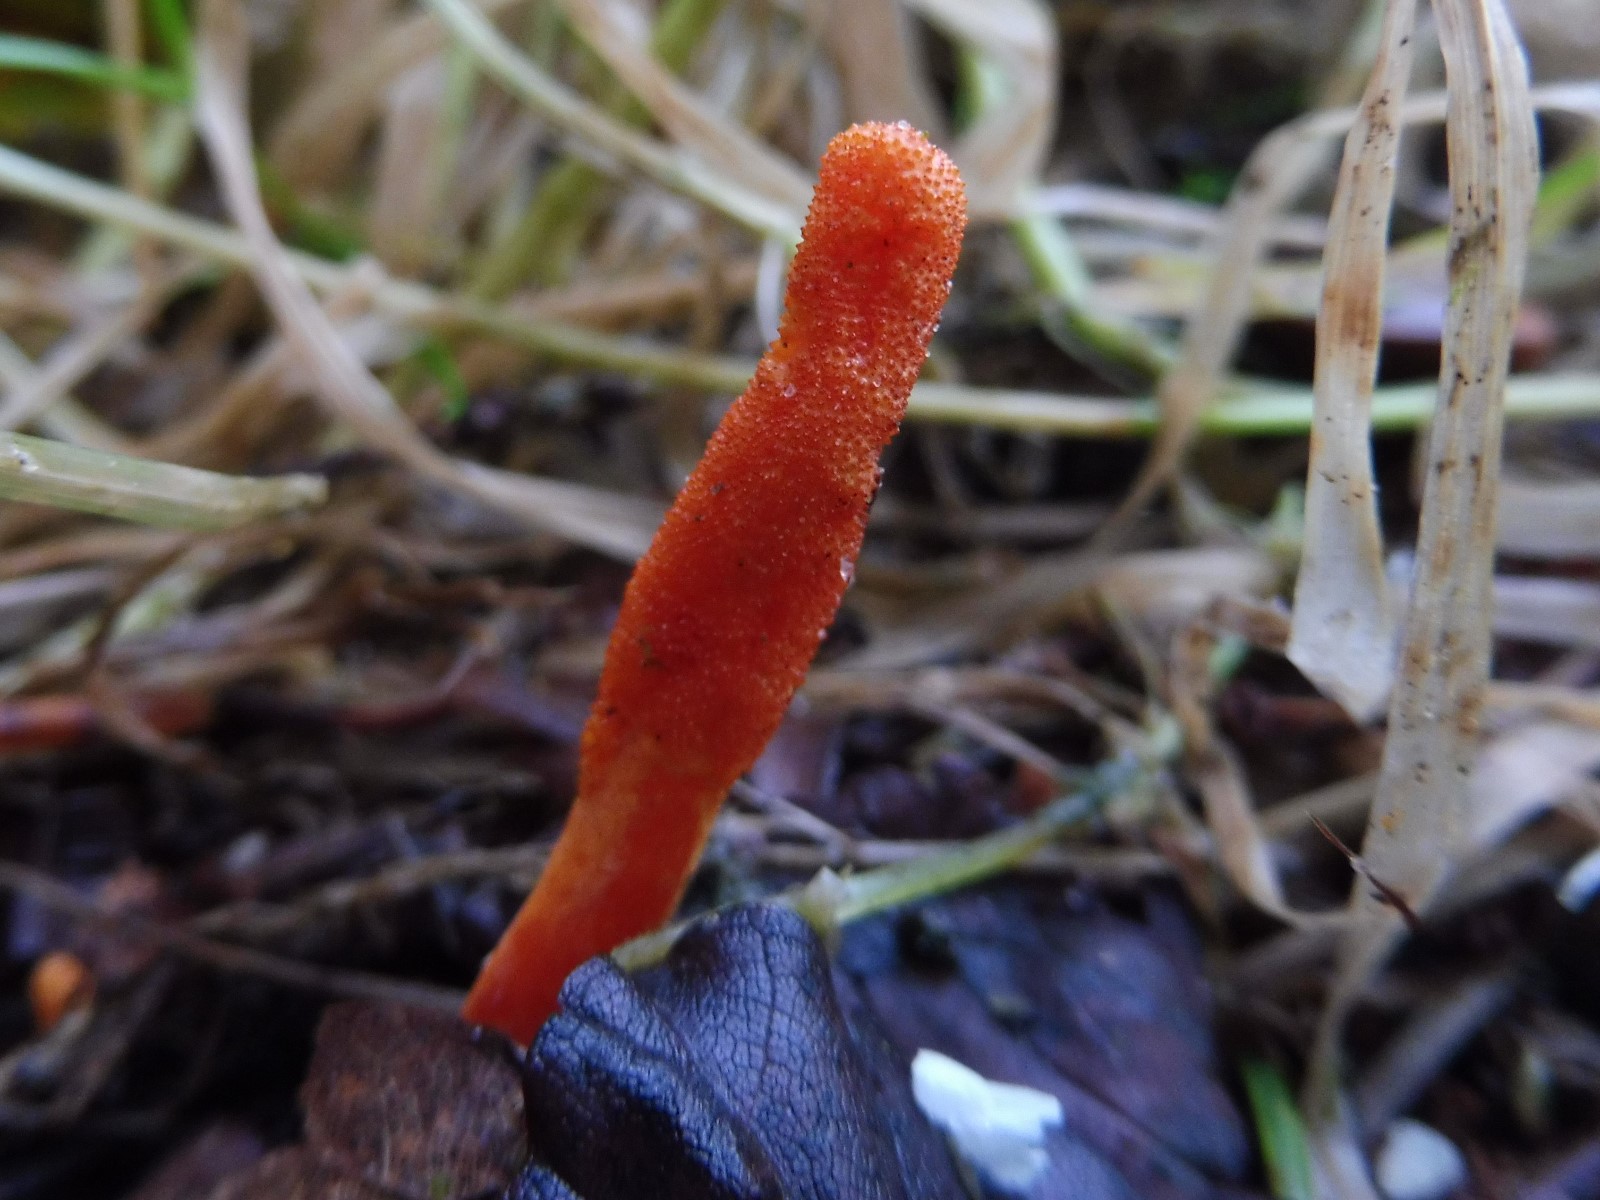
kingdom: Fungi
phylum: Ascomycota
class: Sordariomycetes
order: Hypocreales
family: Cordycipitaceae
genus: Cordyceps
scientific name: Cordyceps militaris
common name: puppe-snyltekølle
